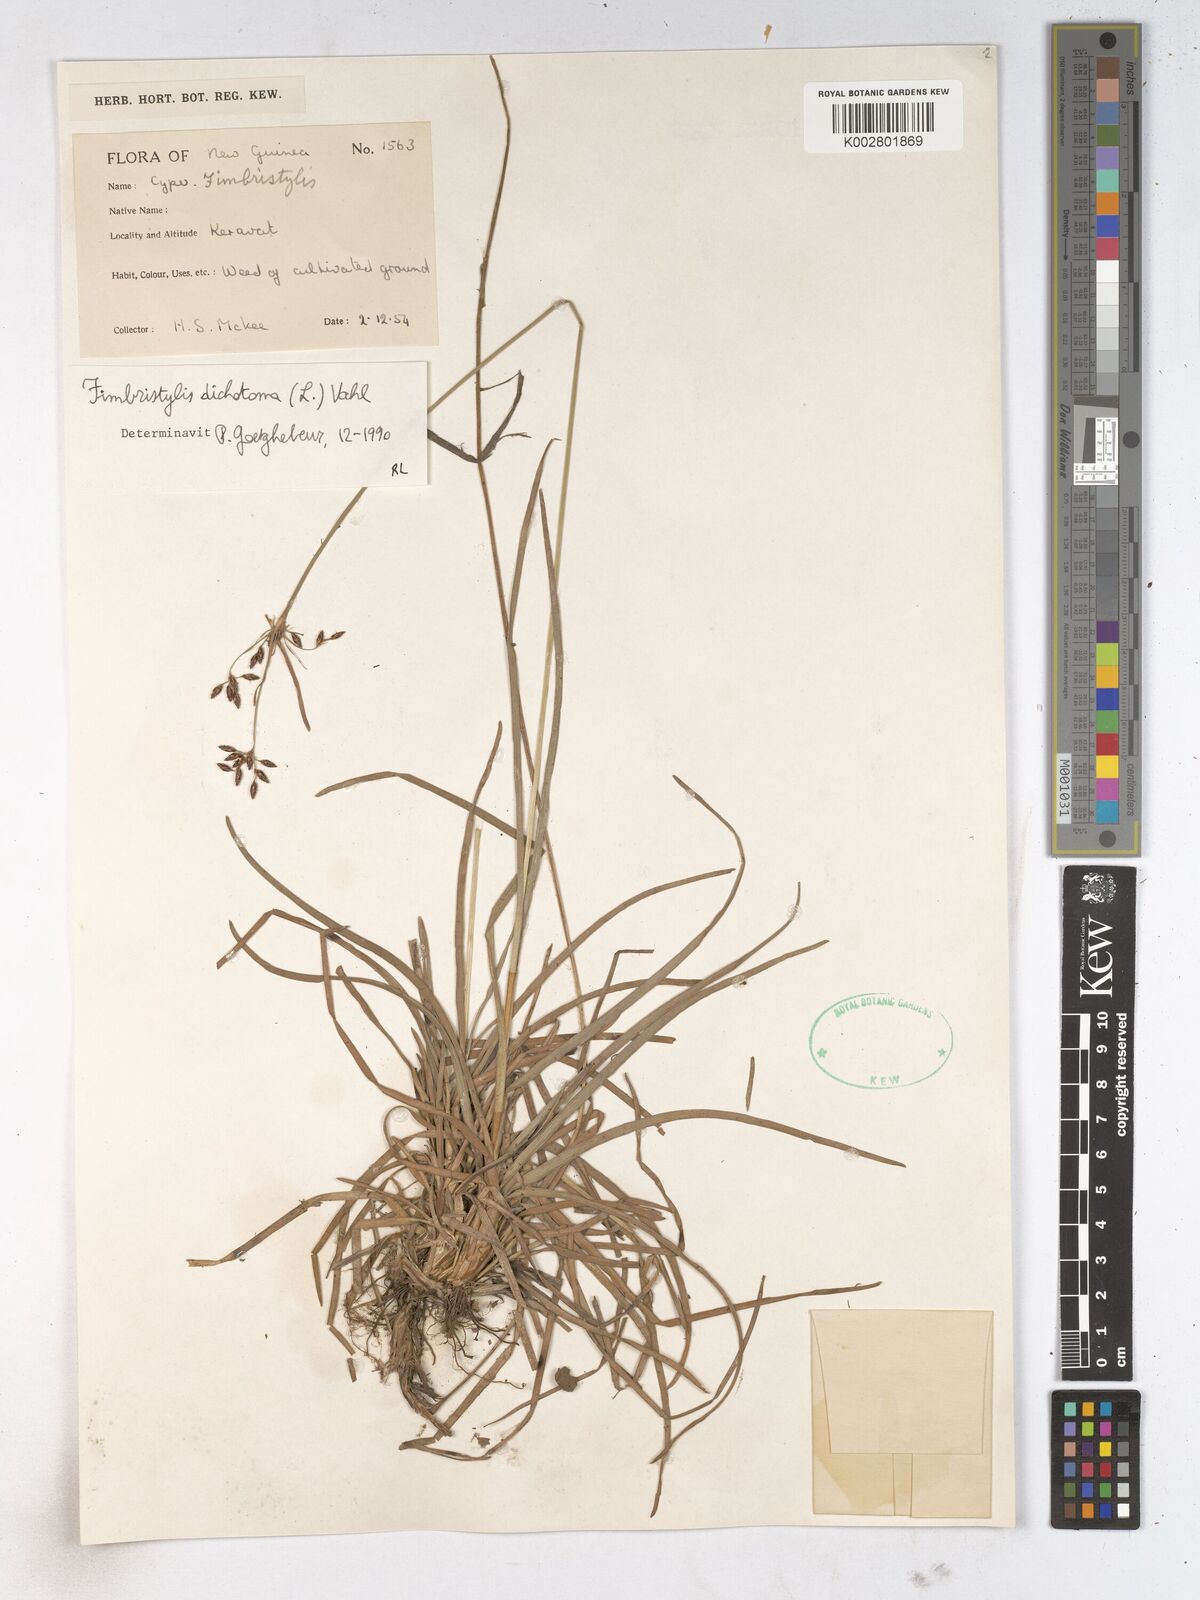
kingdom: Plantae
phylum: Tracheophyta
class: Liliopsida
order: Poales
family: Cyperaceae
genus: Fimbristylis
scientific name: Fimbristylis dichotoma
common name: Forked fimbry
